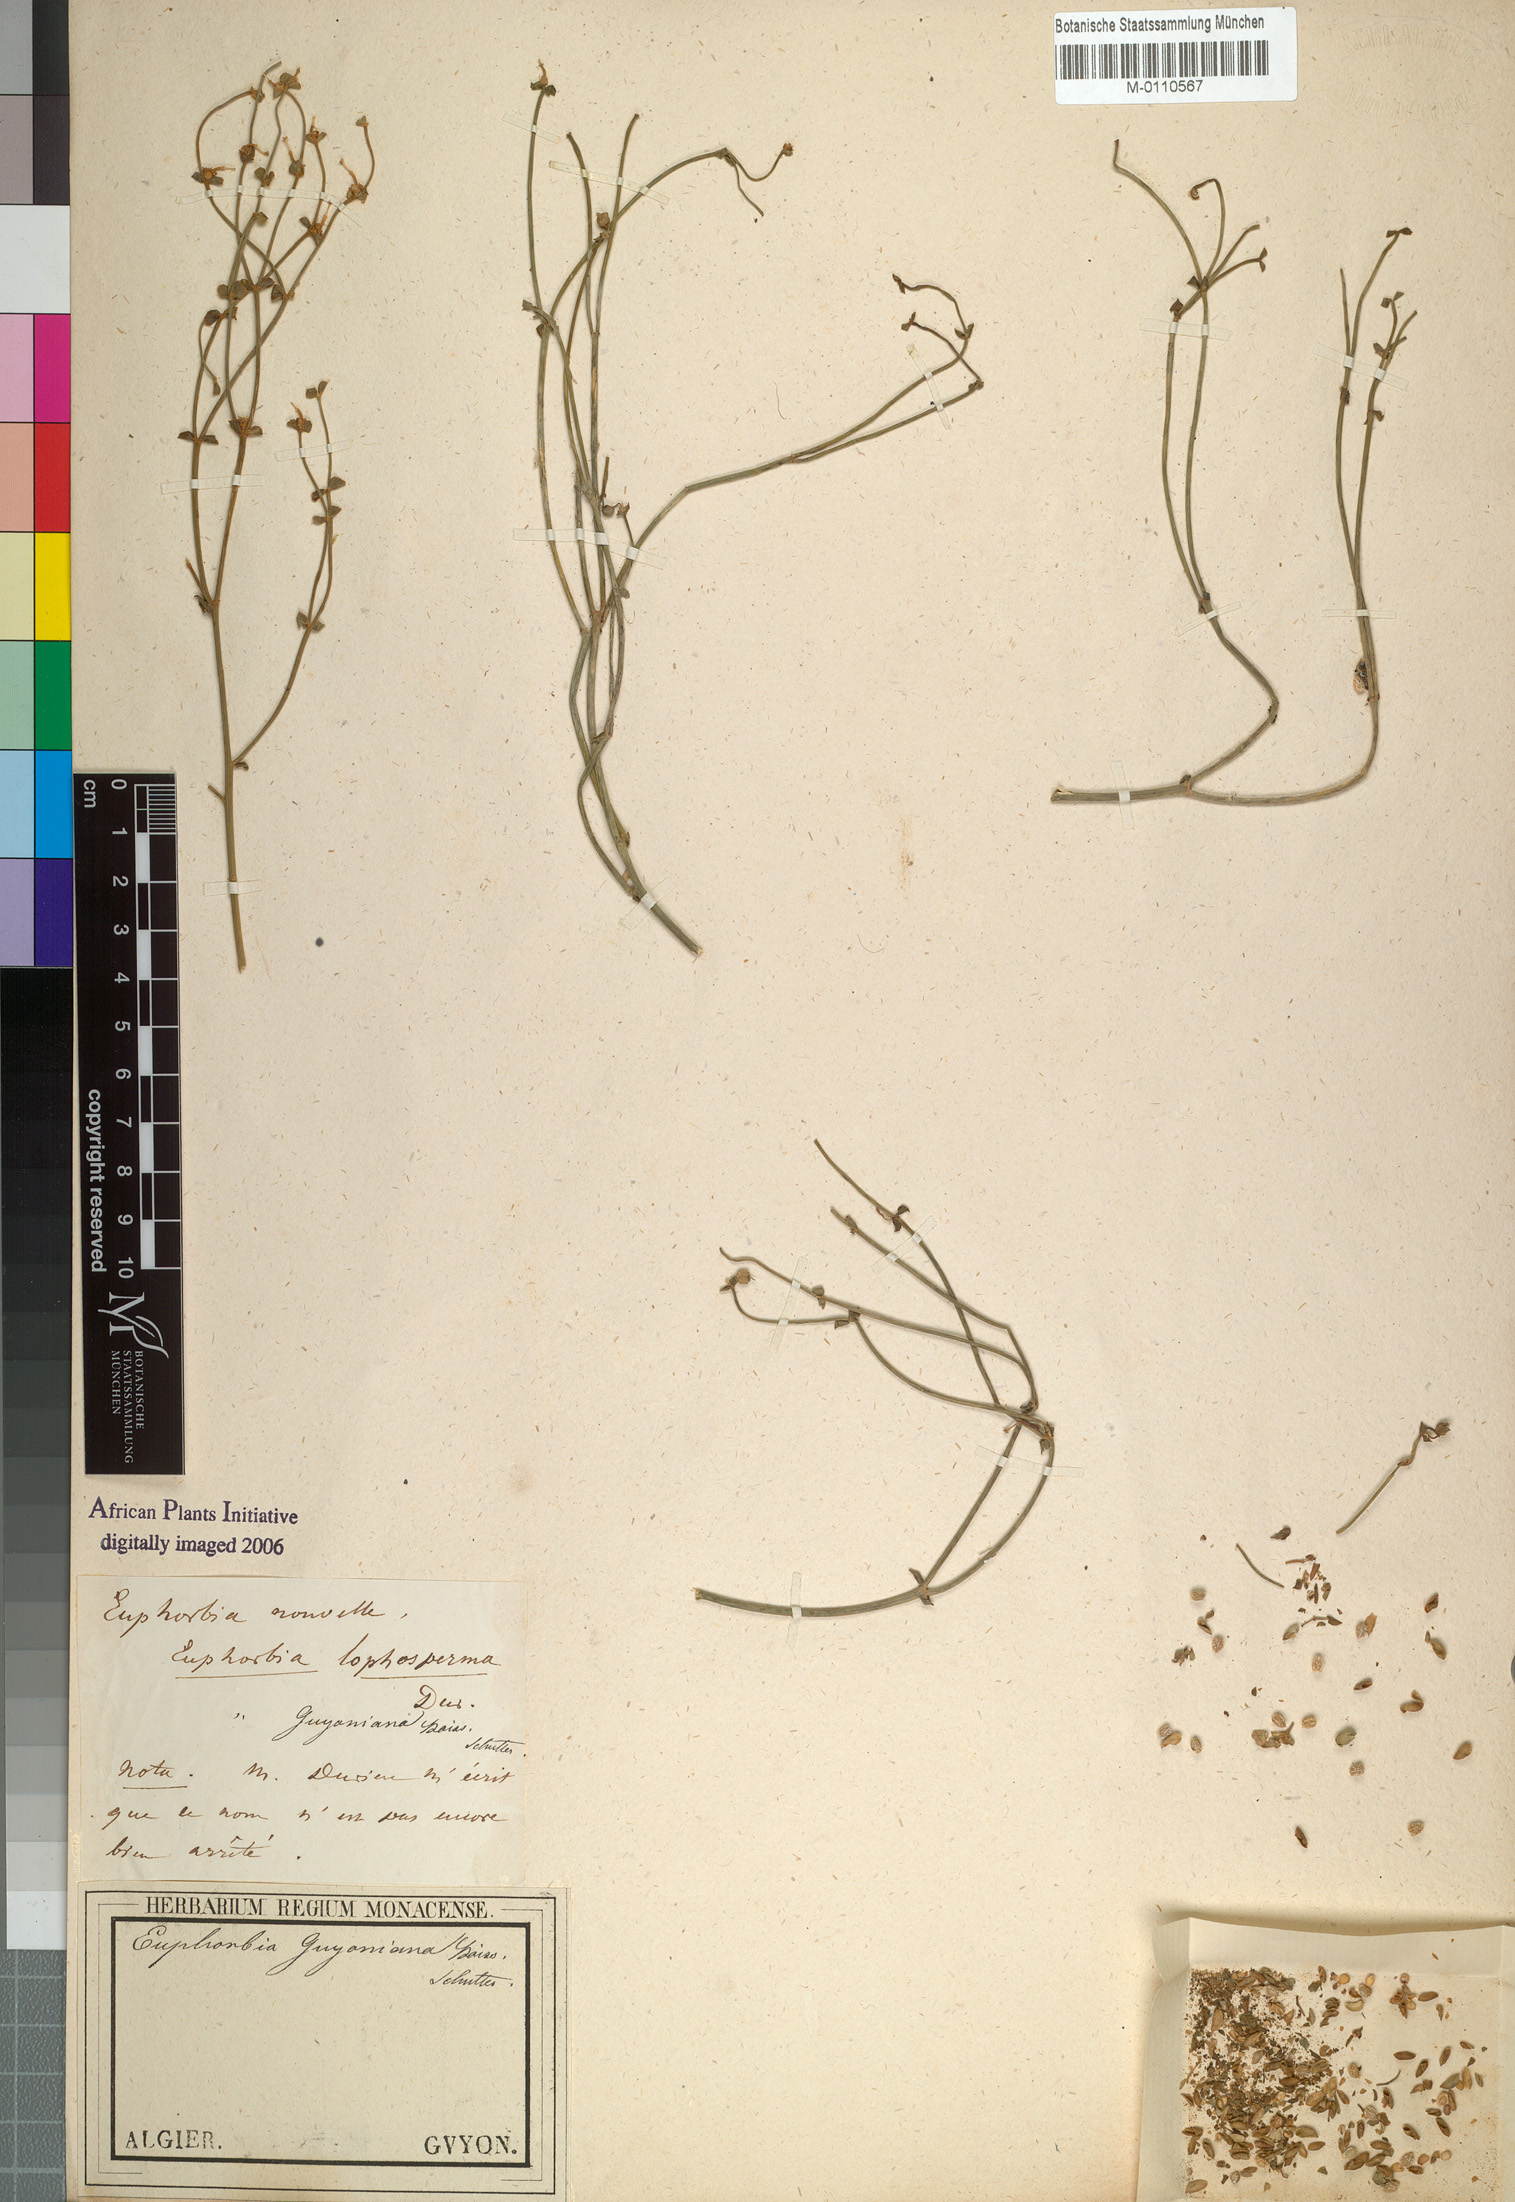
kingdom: Plantae
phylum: Tracheophyta
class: Magnoliopsida
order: Malpighiales
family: Euphorbiaceae
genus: Euphorbia
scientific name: Euphorbia guyoniana
